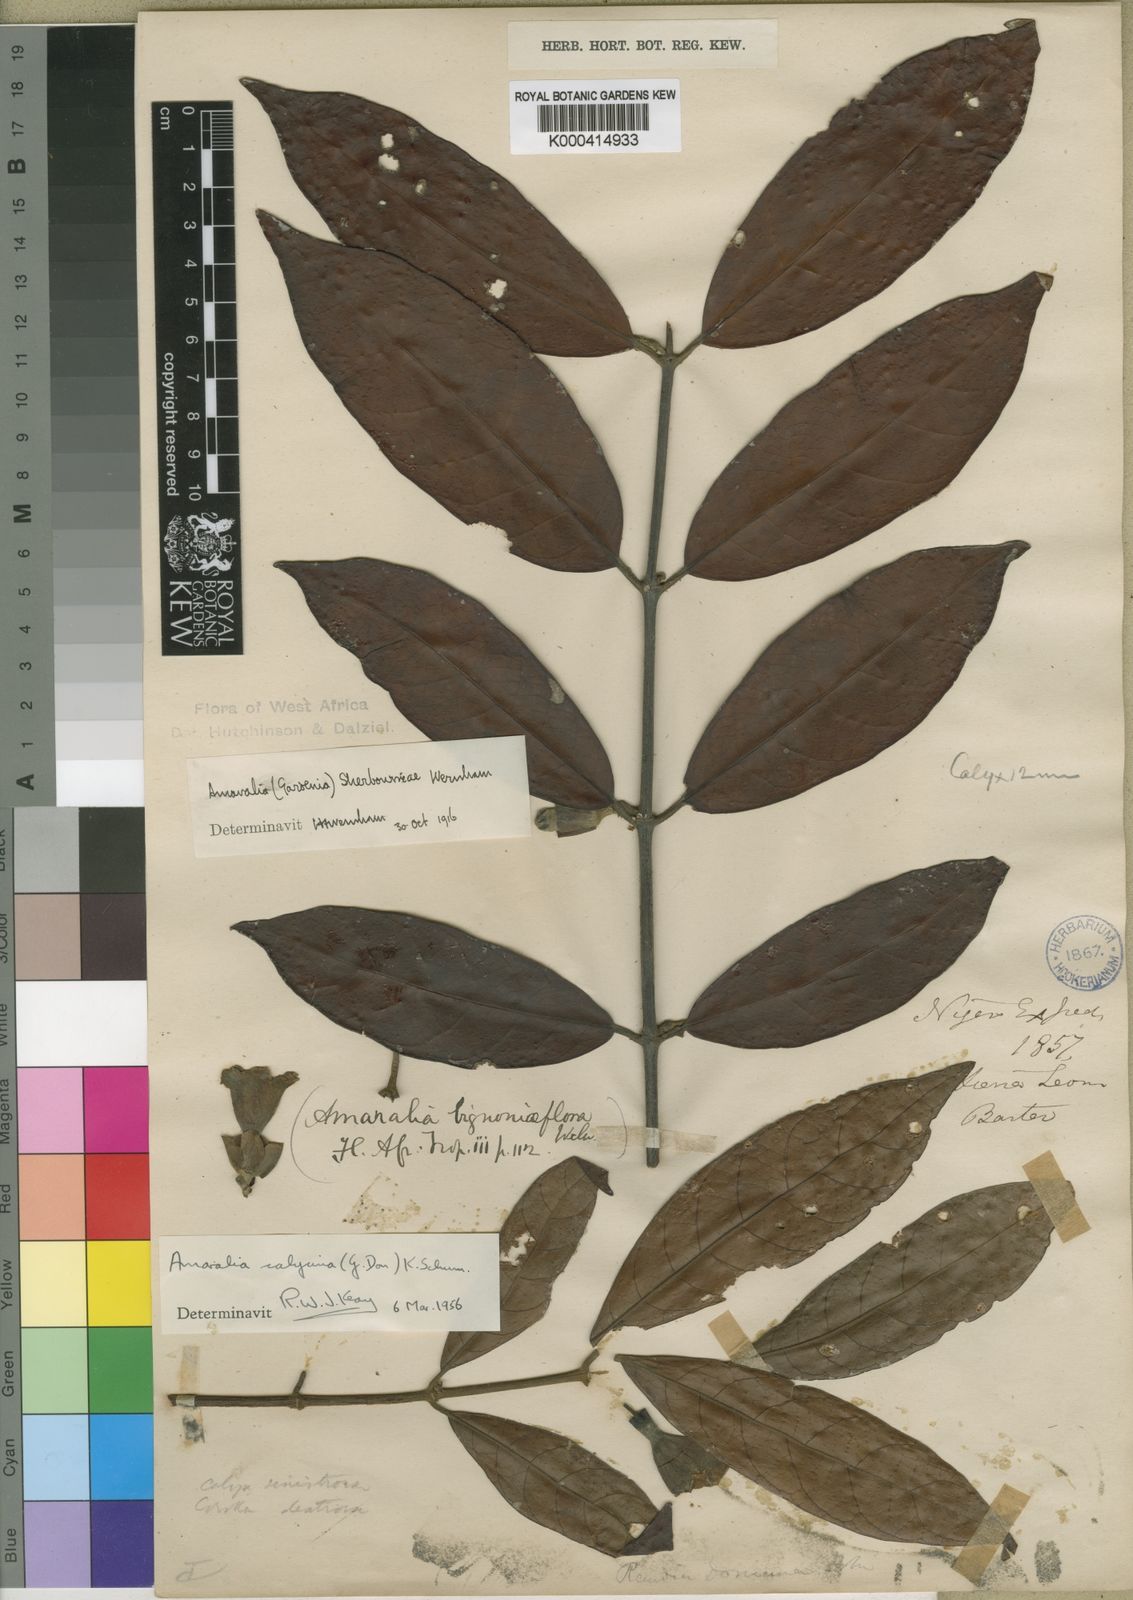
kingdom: Plantae
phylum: Tracheophyta
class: Magnoliopsida
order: Gentianales
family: Rubiaceae
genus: Sherbournia
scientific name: Sherbournia calycina
